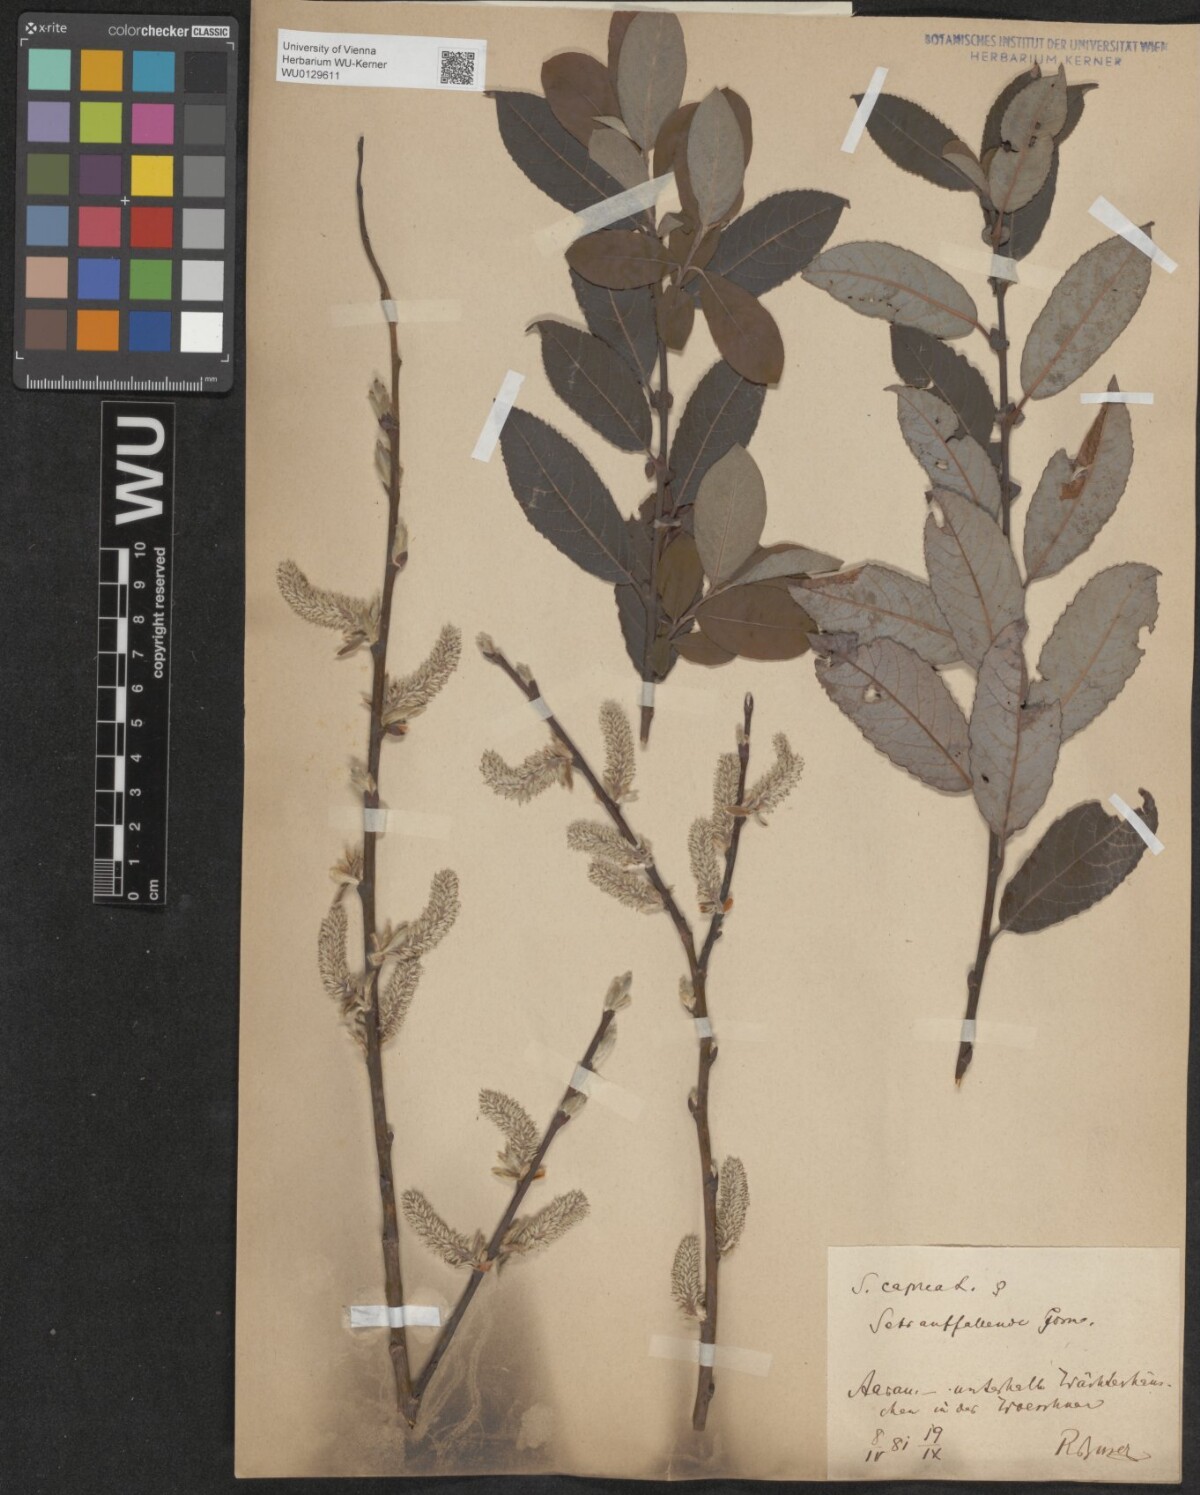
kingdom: Plantae
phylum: Tracheophyta
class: Magnoliopsida
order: Malpighiales
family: Salicaceae
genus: Salix
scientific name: Salix caprea
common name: Goat willow
